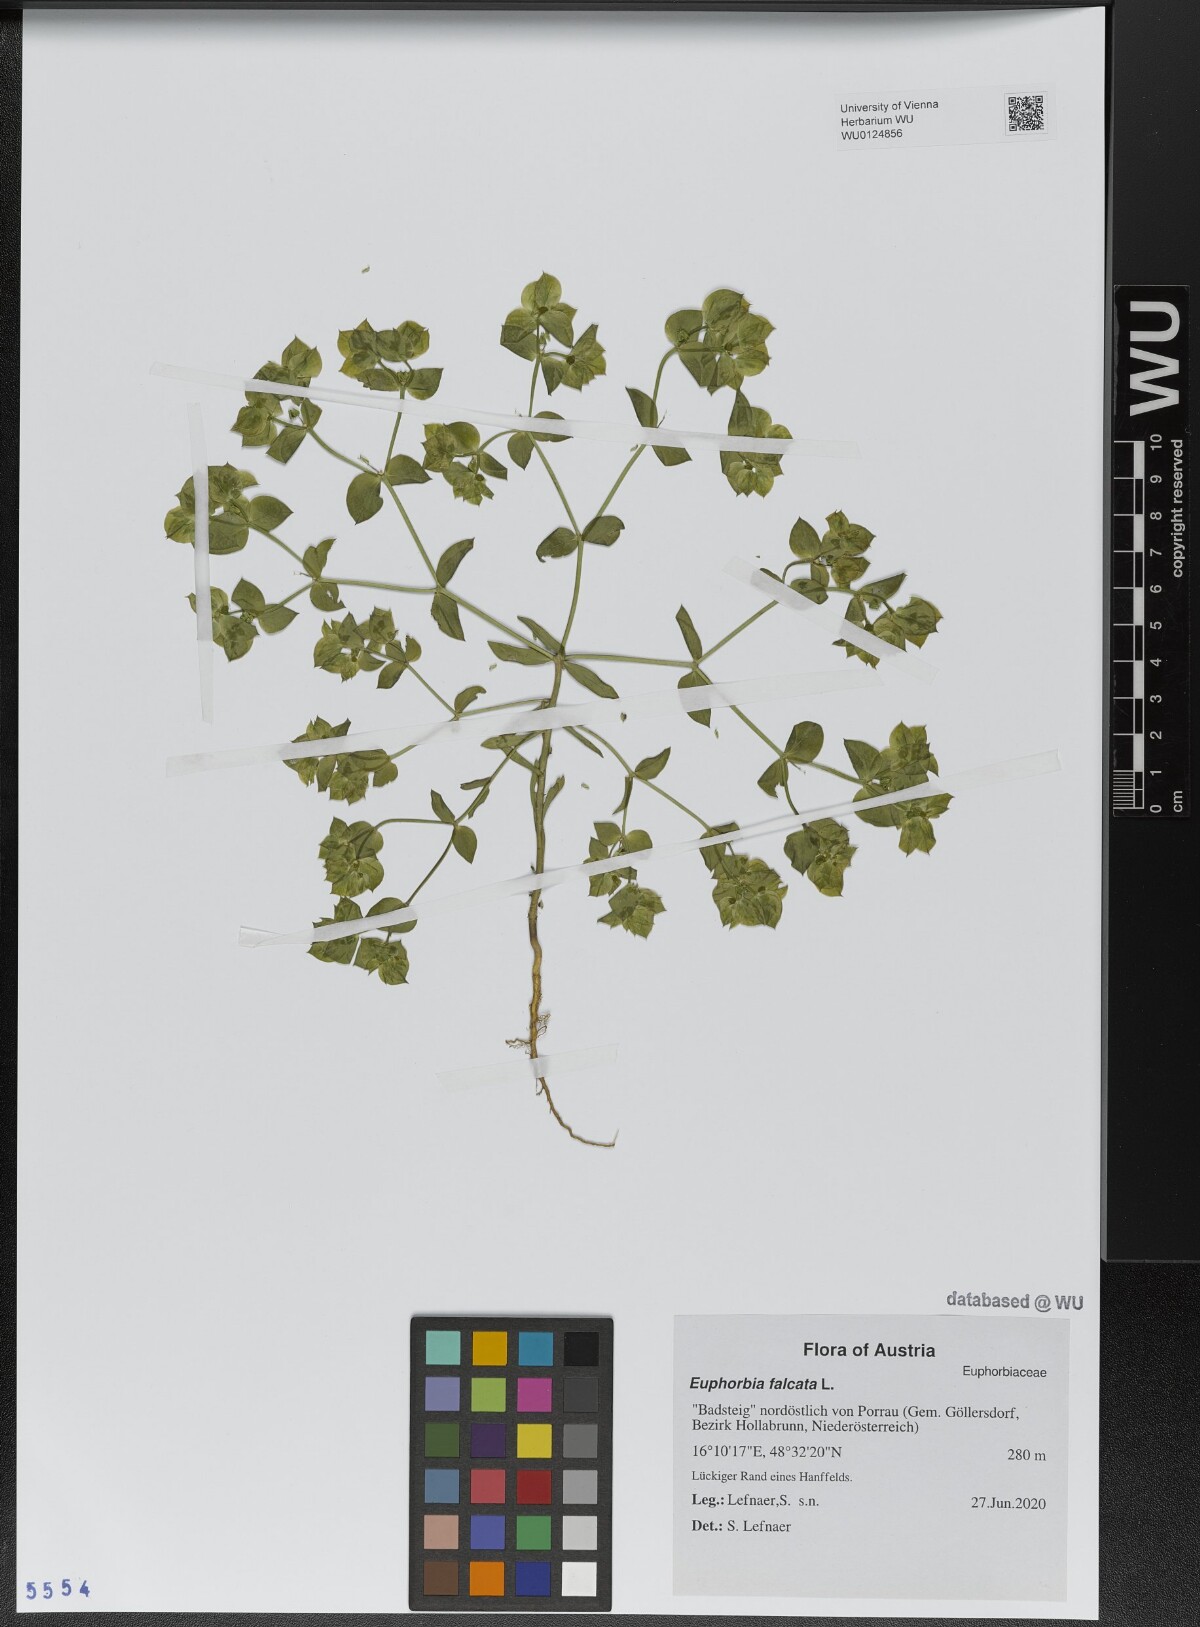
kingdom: Plantae
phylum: Tracheophyta
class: Magnoliopsida
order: Malpighiales
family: Euphorbiaceae
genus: Euphorbia
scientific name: Euphorbia falcata
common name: Sickle spurge
